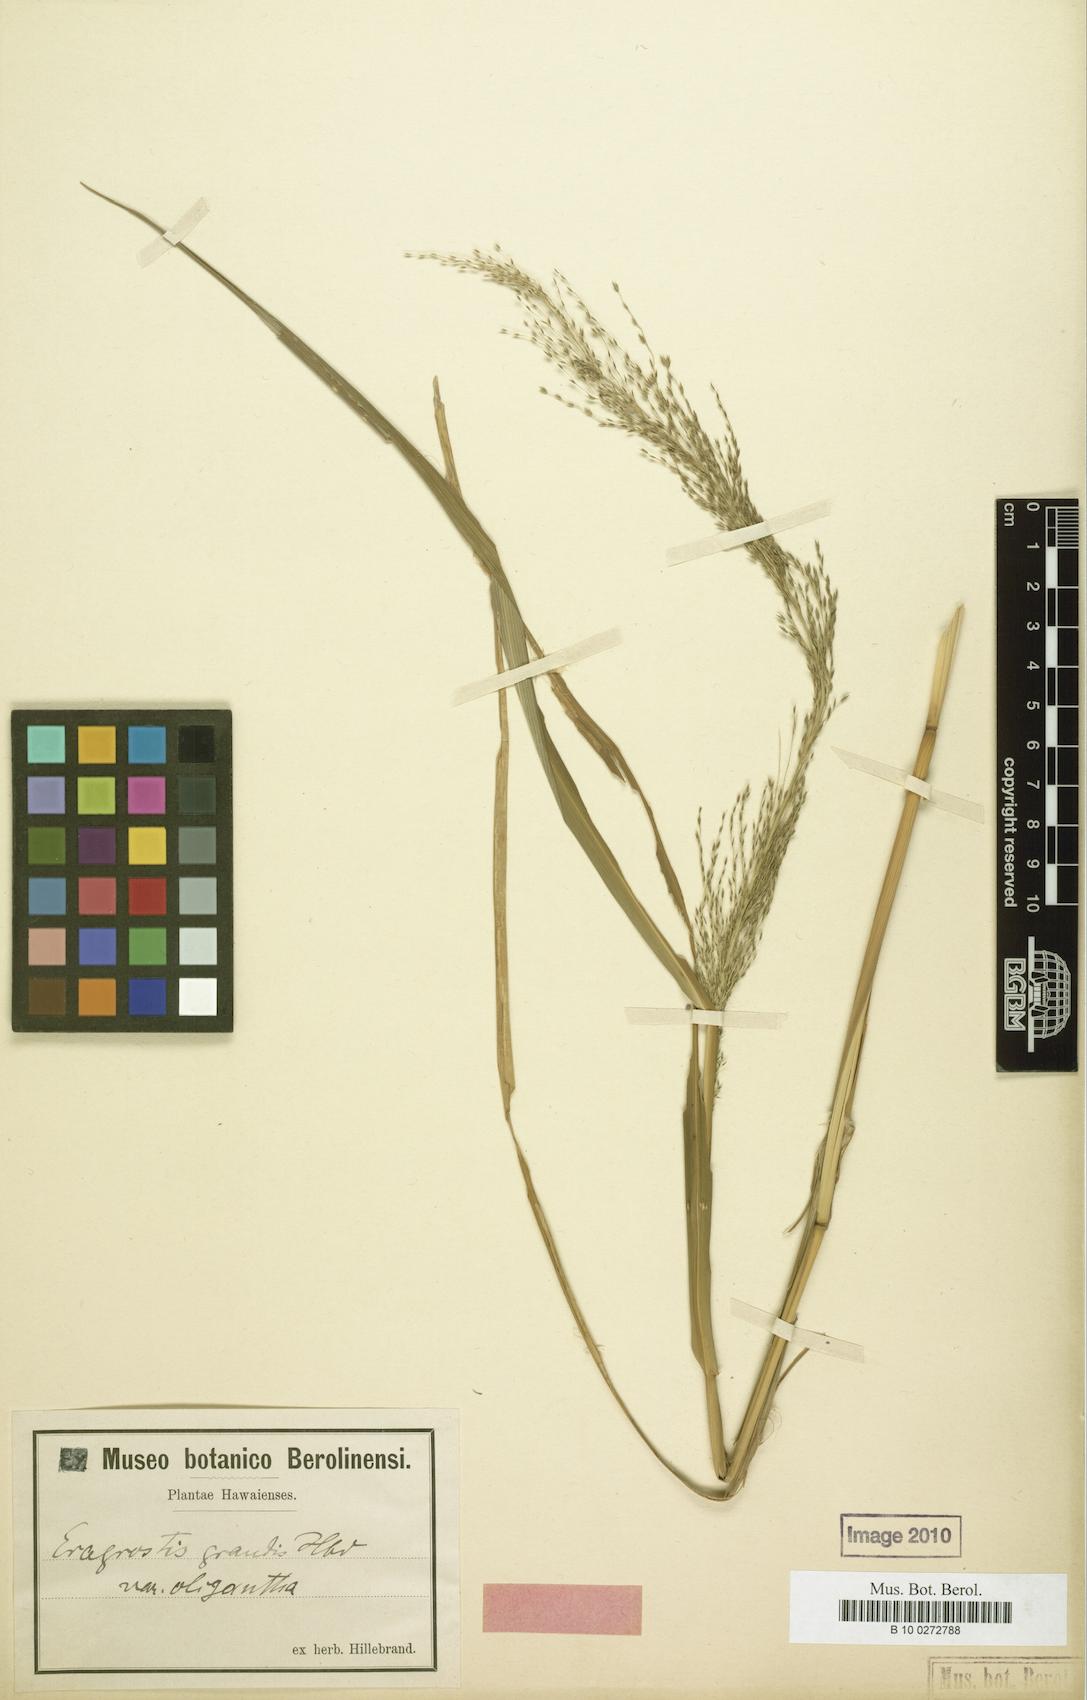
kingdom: Plantae
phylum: Tracheophyta
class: Liliopsida
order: Poales
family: Poaceae
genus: Eragrostis
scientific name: Eragrostis grandis
